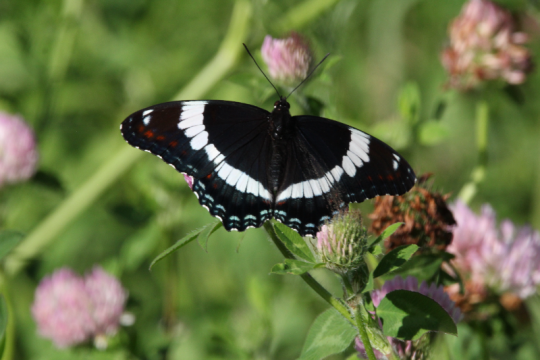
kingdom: Animalia
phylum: Arthropoda
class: Insecta
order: Lepidoptera
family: Nymphalidae
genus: Limenitis
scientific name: Limenitis arthemis
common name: Red-spotted Admiral
